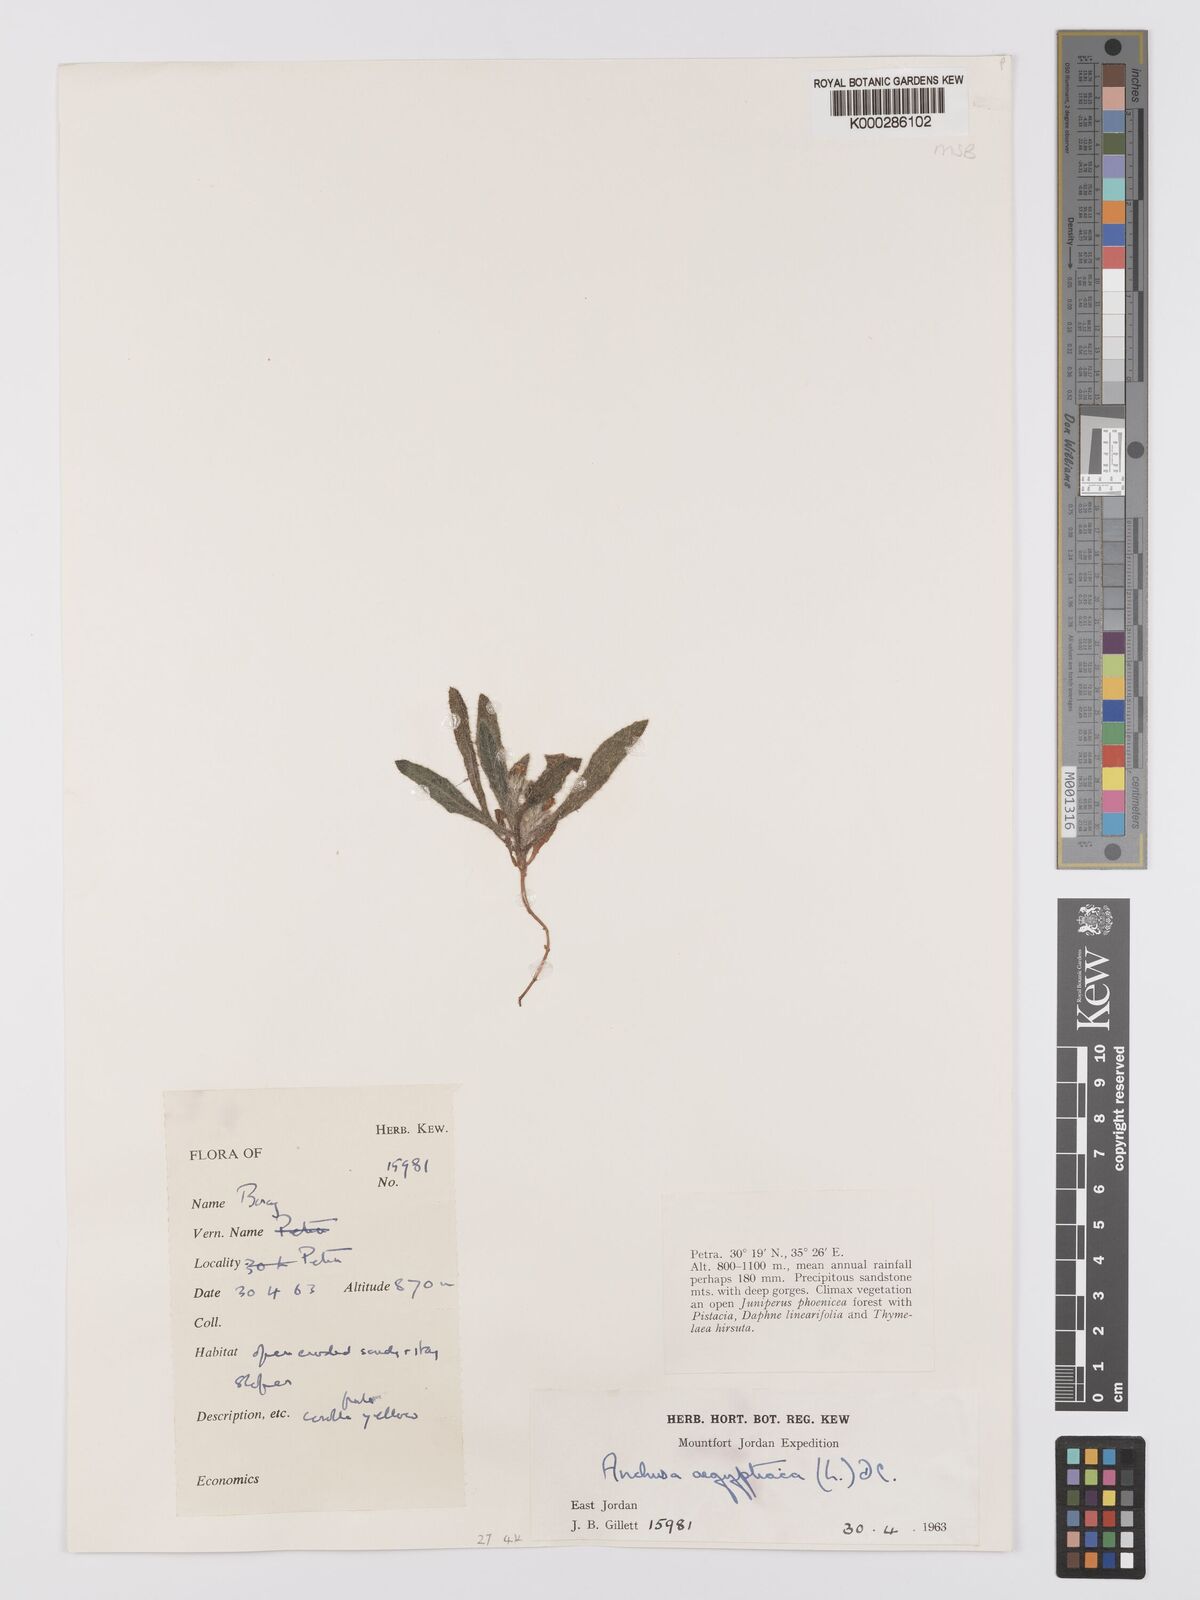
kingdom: Plantae
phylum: Tracheophyta
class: Magnoliopsida
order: Boraginales
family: Boraginaceae
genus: Lycopsis
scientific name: Lycopsis aegyptiaca
